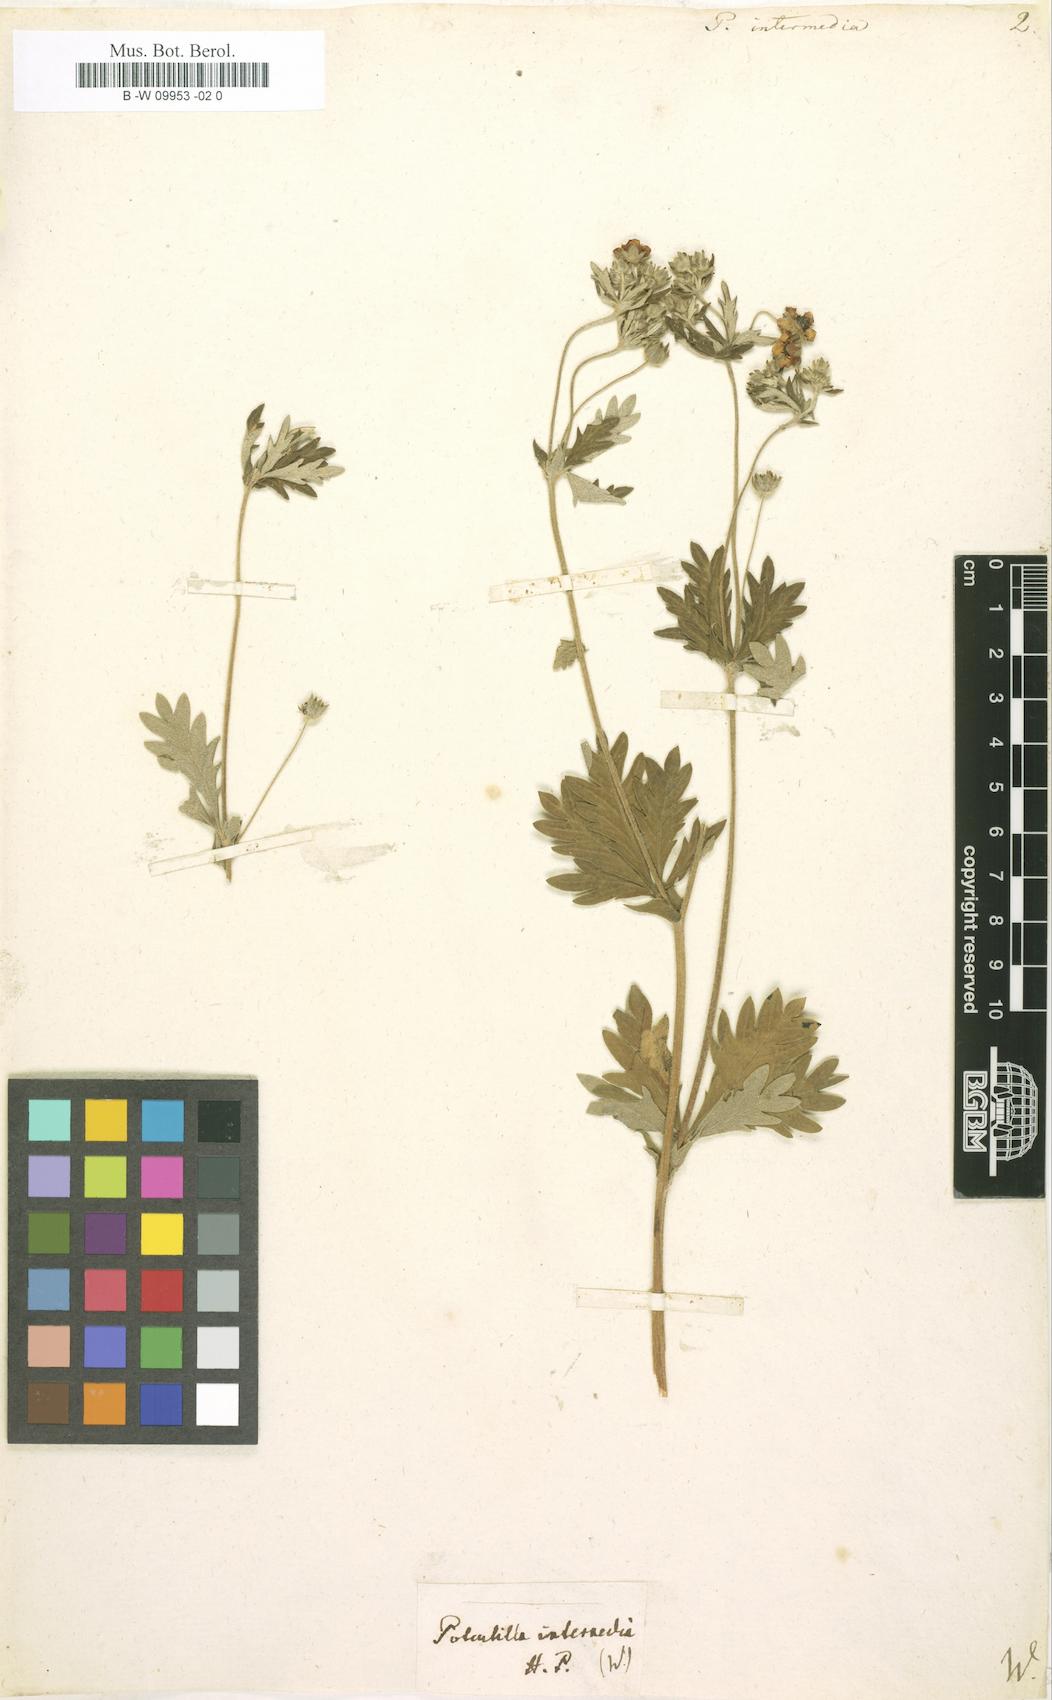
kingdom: Plantae
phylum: Tracheophyta
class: Magnoliopsida
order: Rosales
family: Rosaceae
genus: Potentilla
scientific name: Potentilla intermedia
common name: Downy cinquefoil
